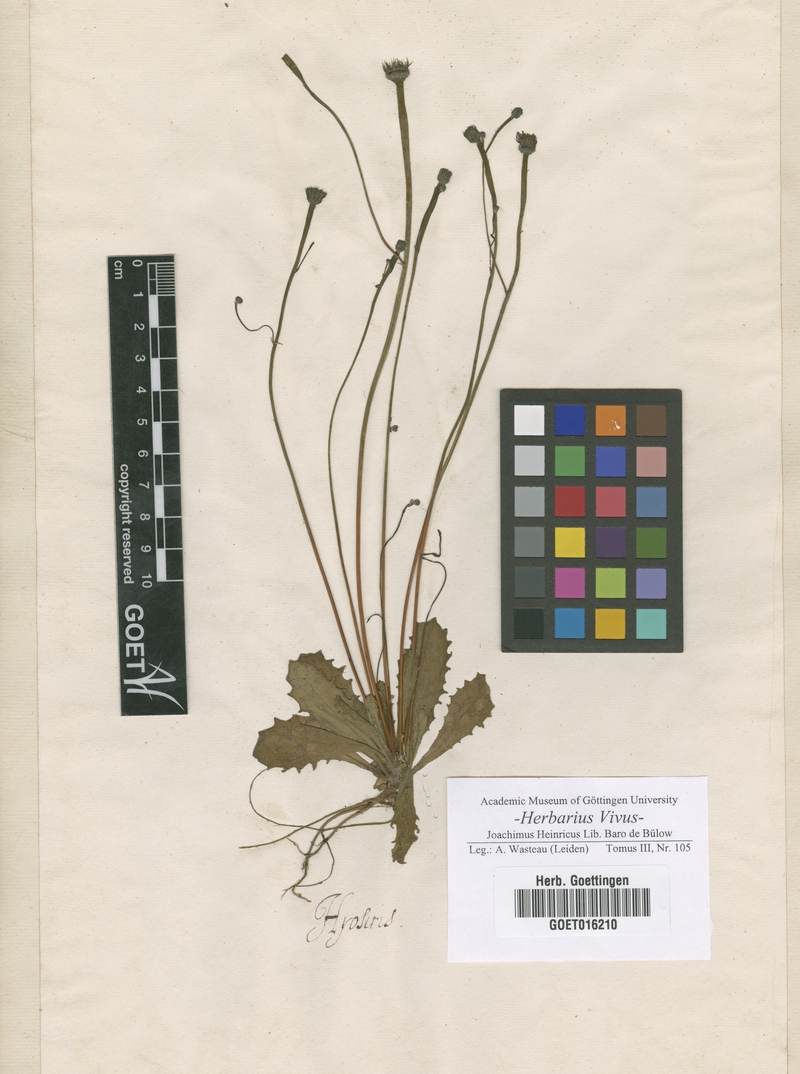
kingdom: Plantae
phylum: Tracheophyta
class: Magnoliopsida
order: Asterales
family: Asteraceae
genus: Hyoseris
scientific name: Hyoseris
